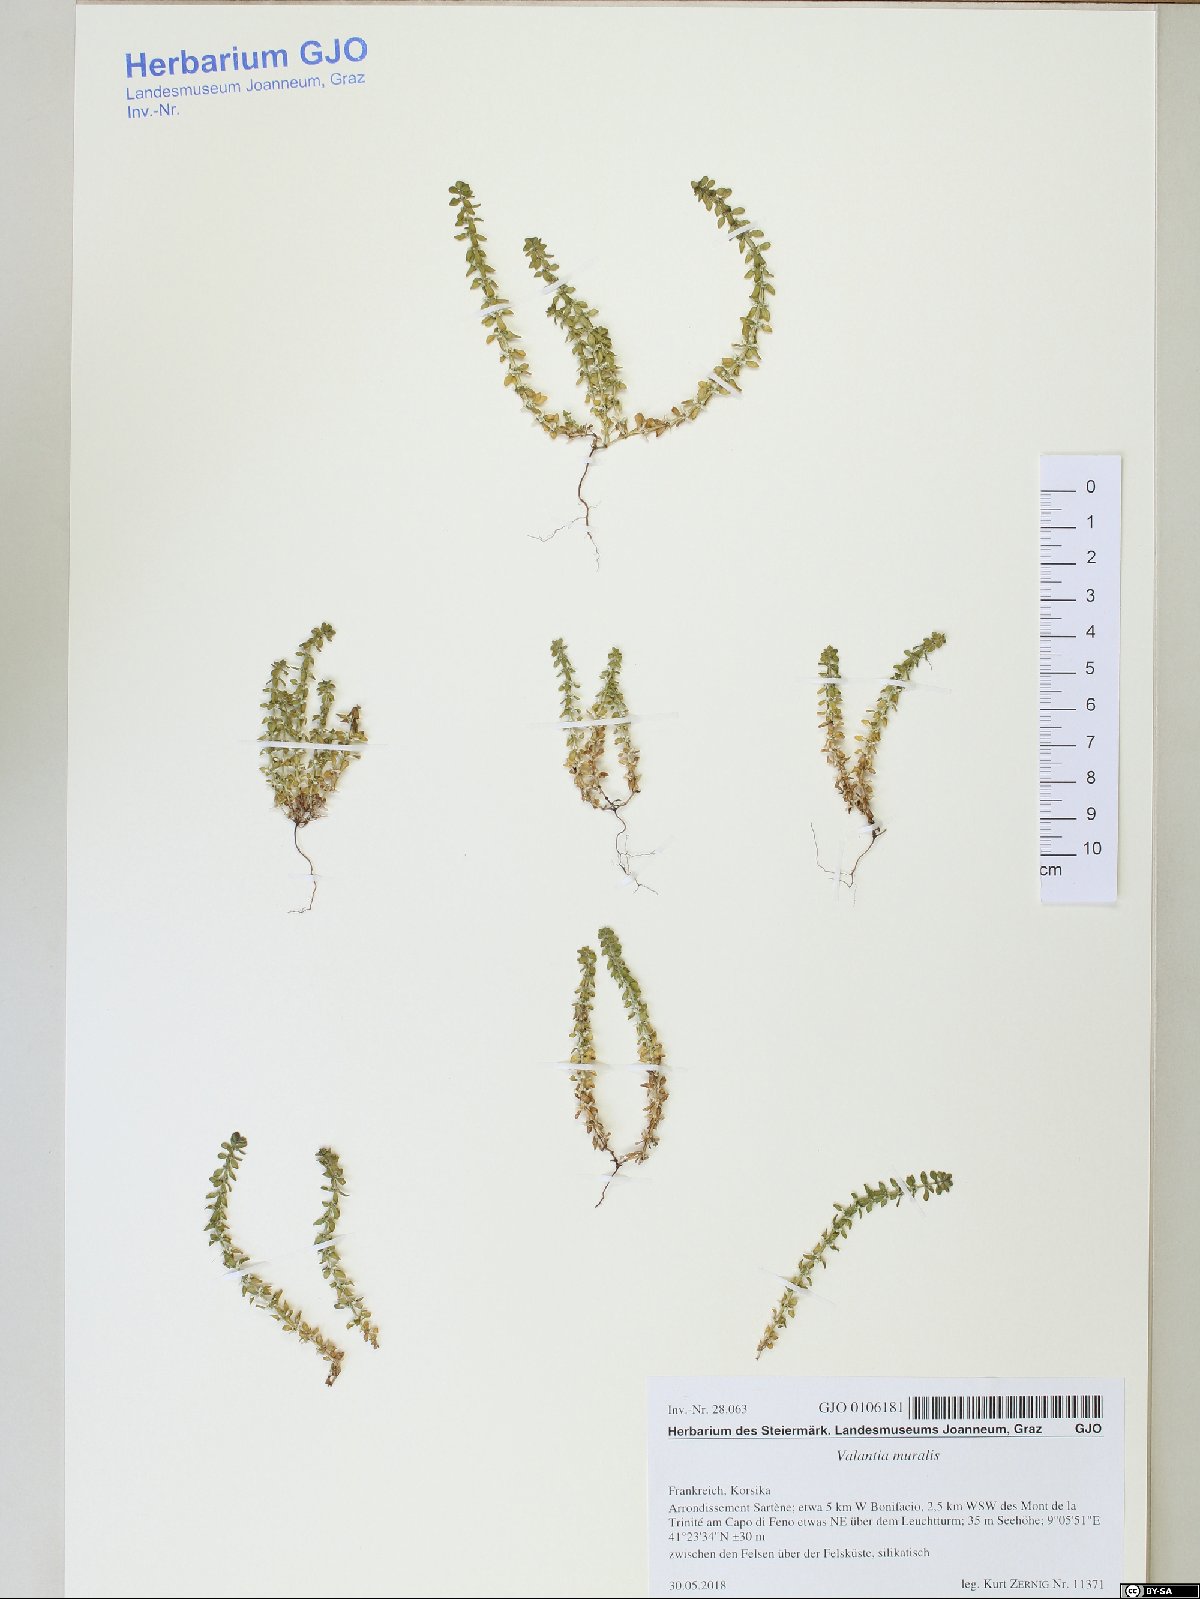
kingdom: Plantae
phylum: Tracheophyta
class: Magnoliopsida
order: Gentianales
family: Rubiaceae
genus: Valantia
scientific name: Valantia muralis
